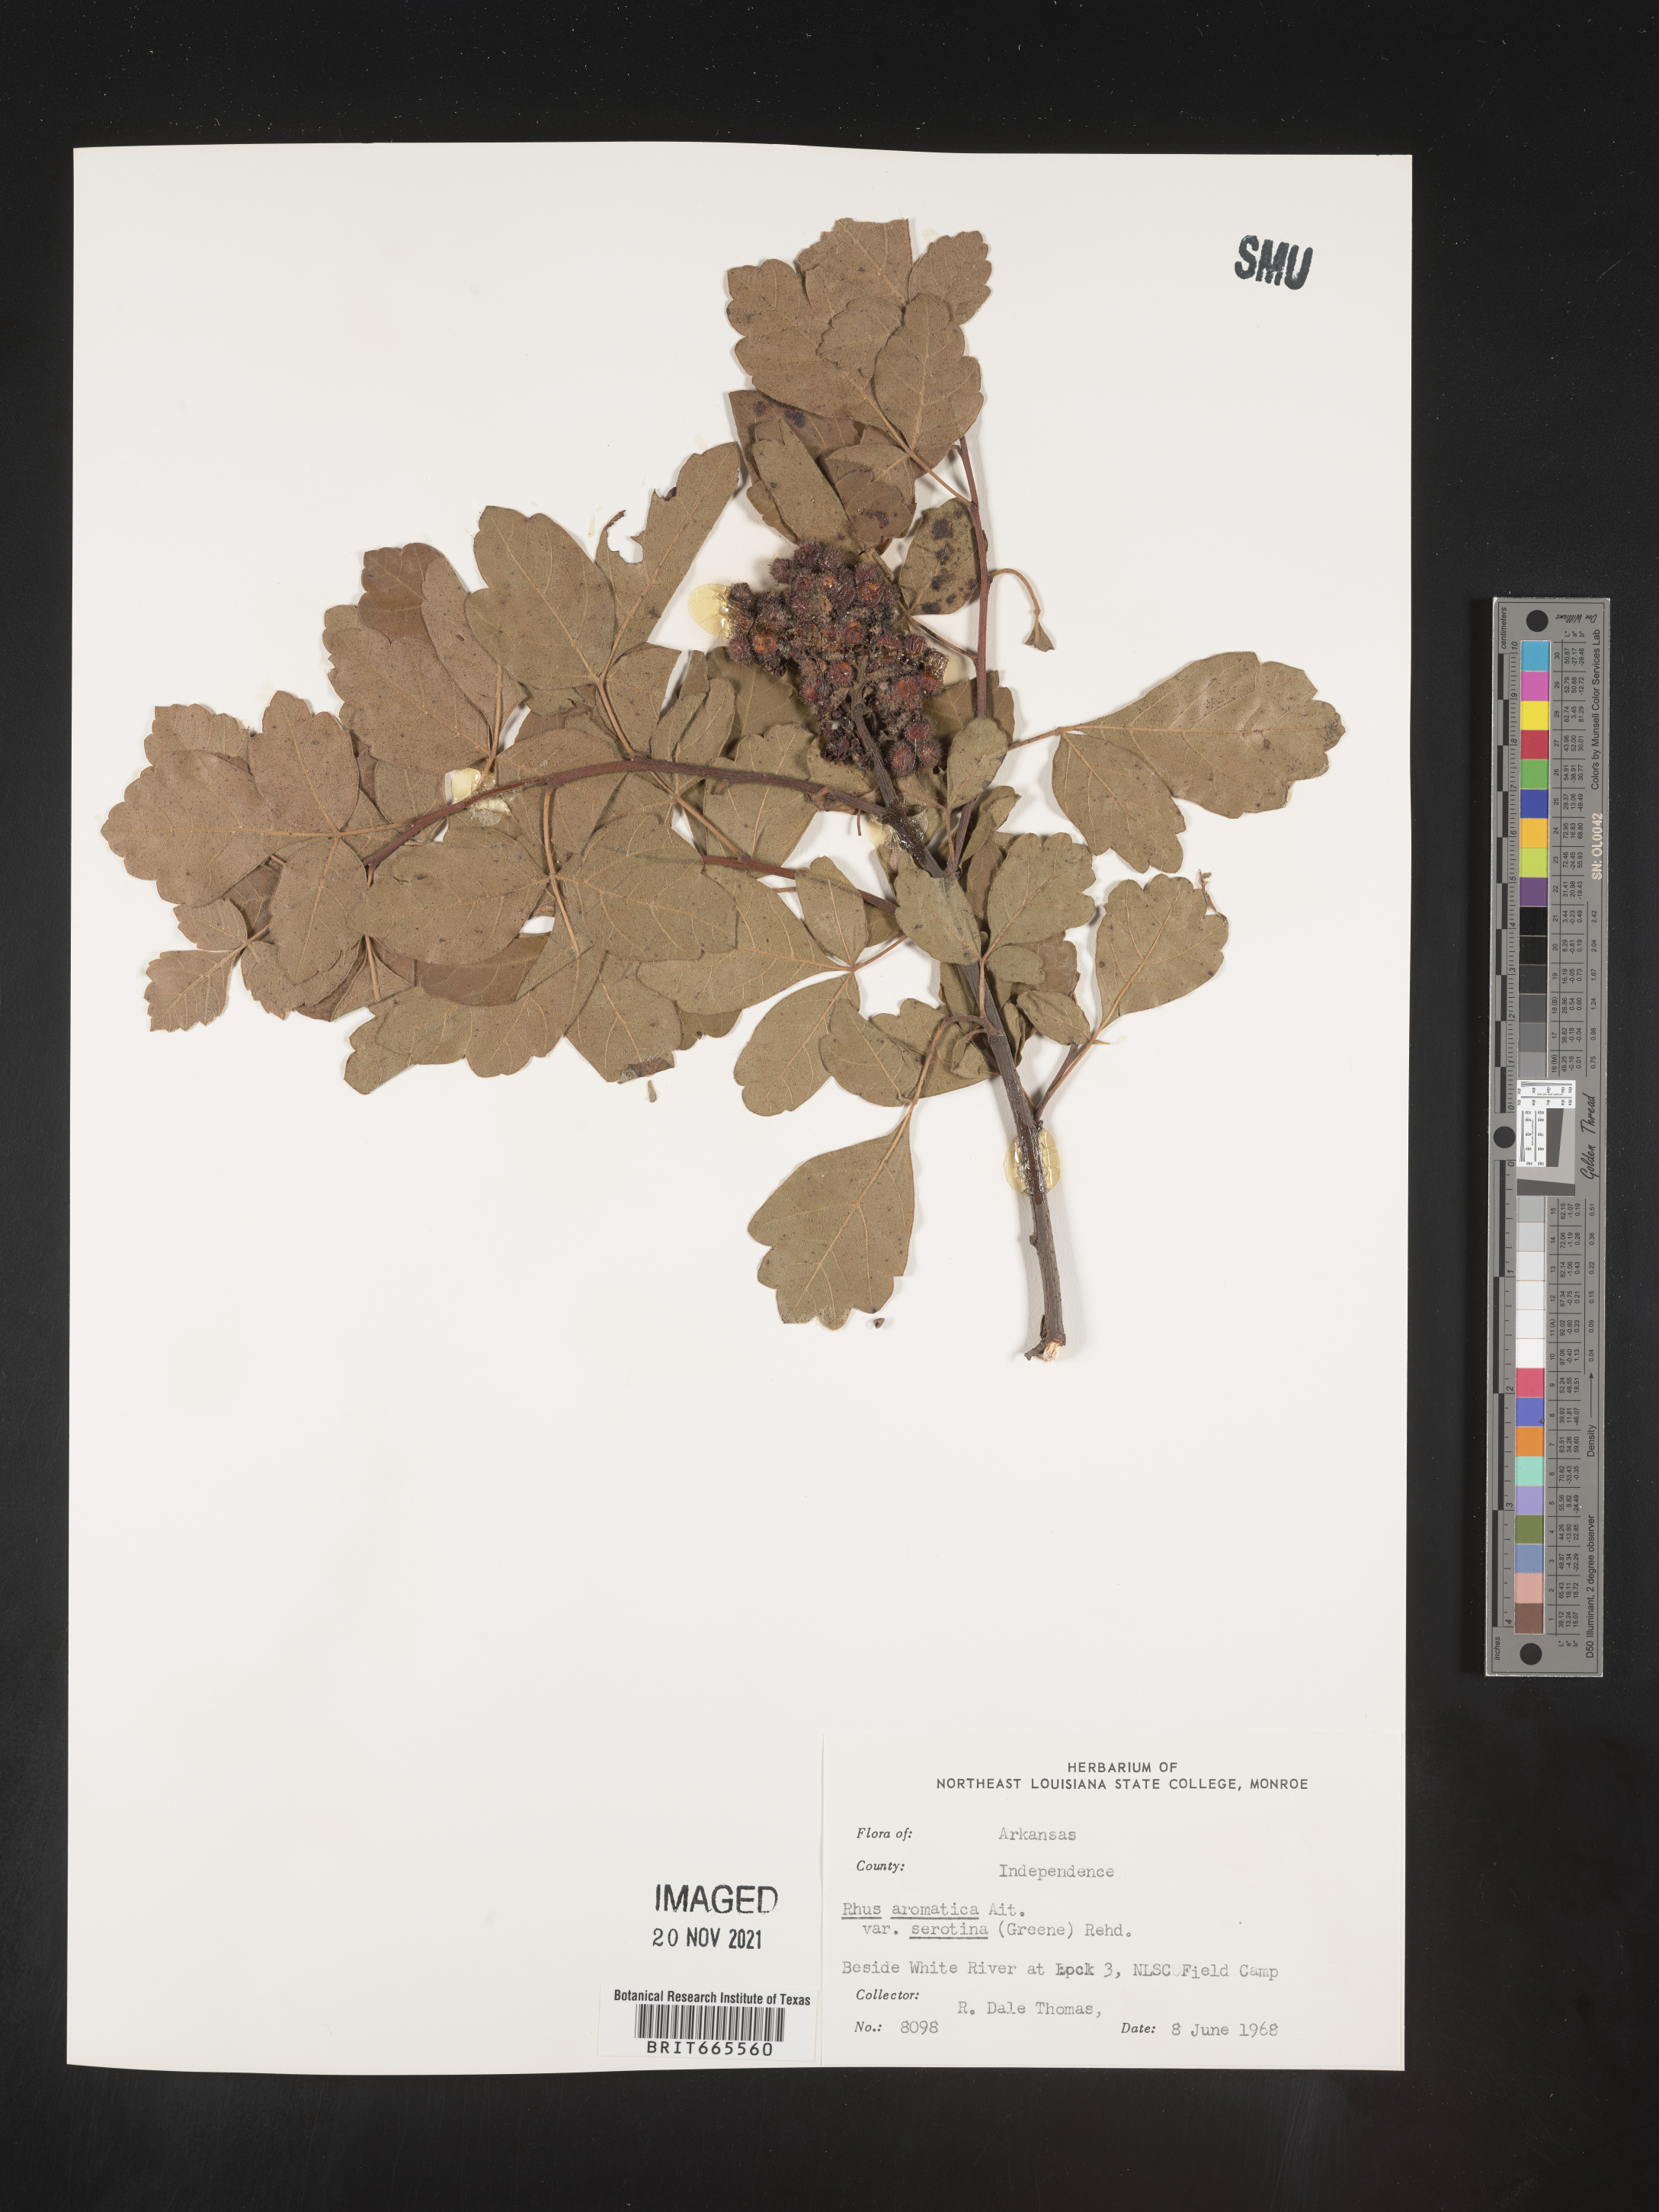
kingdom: Plantae
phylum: Tracheophyta
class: Magnoliopsida
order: Sapindales
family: Anacardiaceae
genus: Rhus
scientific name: Rhus aromatica
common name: Aromatic sumac
